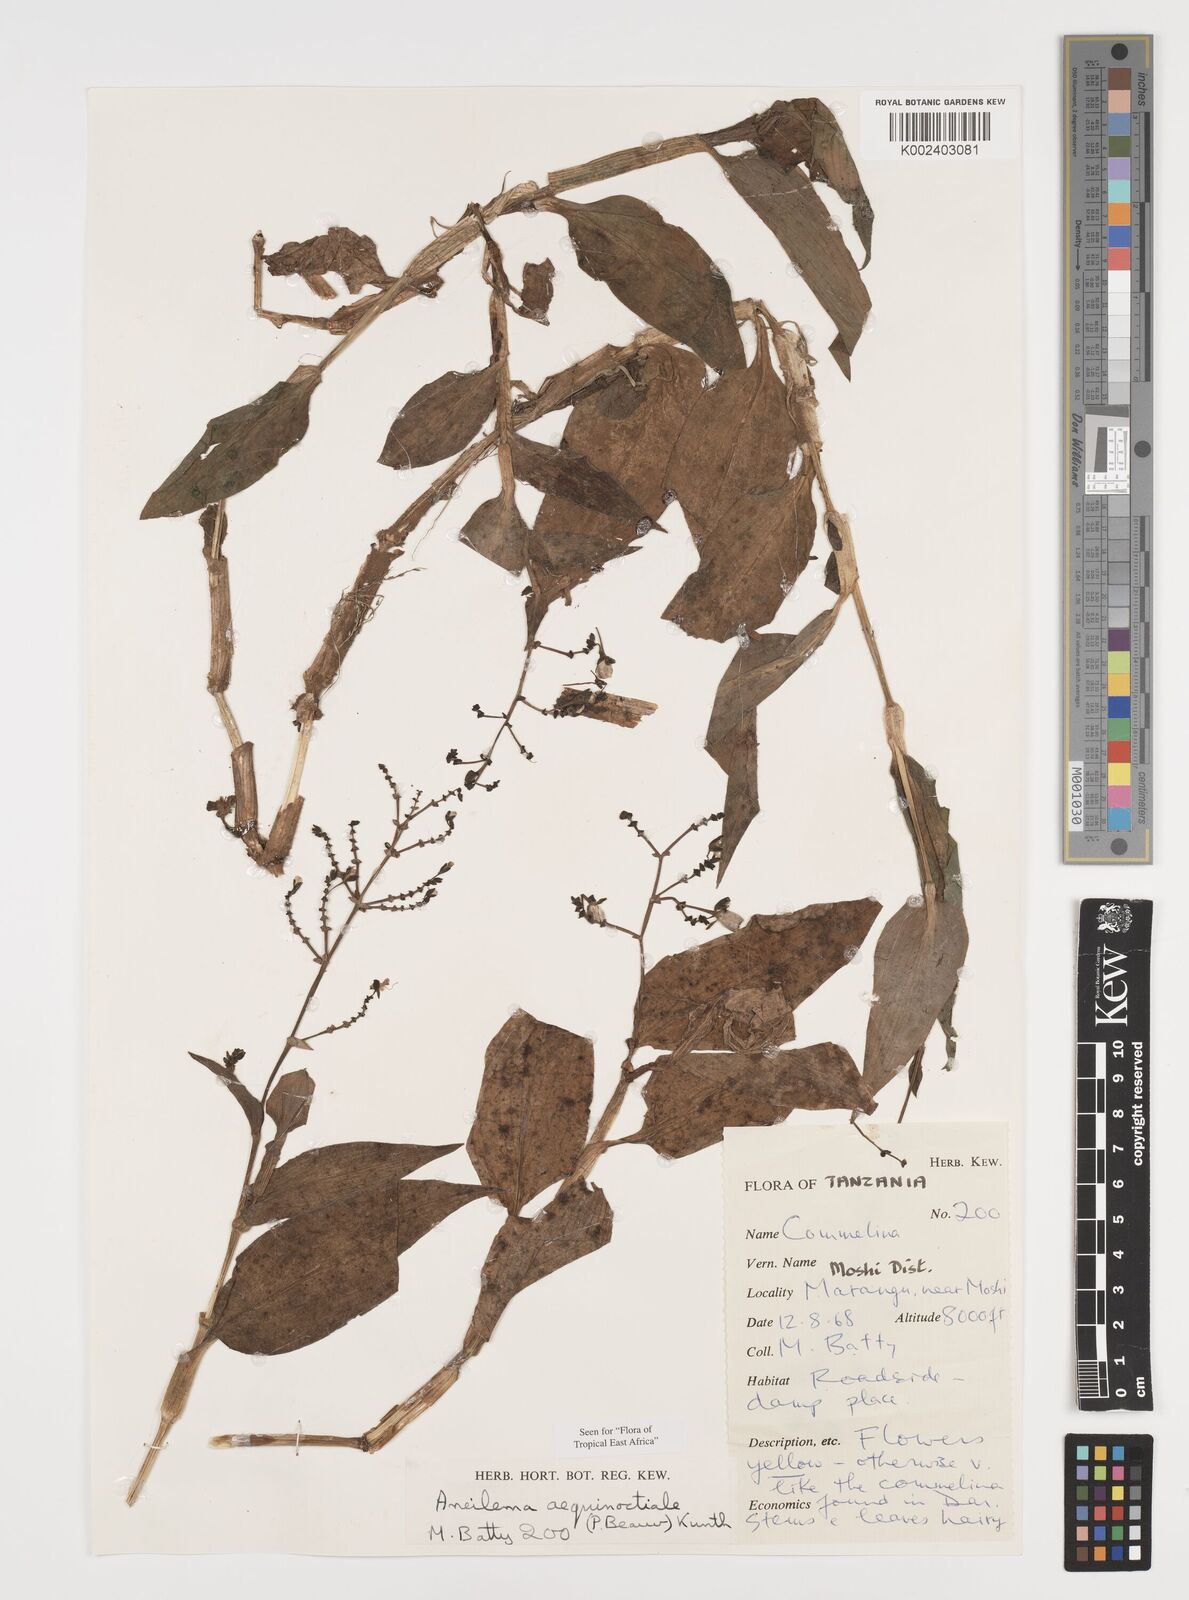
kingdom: Plantae
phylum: Tracheophyta
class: Liliopsida
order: Commelinales
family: Commelinaceae
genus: Aneilema
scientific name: Aneilema aequinoctiale
